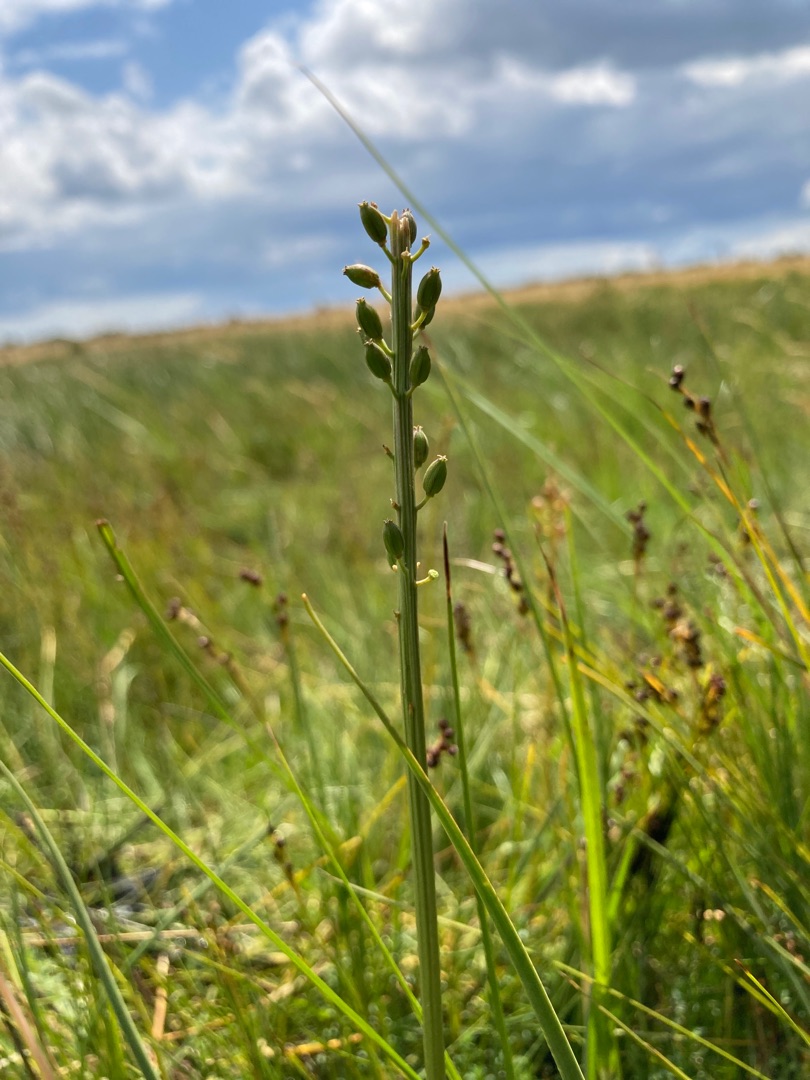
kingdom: Plantae
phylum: Tracheophyta
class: Liliopsida
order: Alismatales
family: Juncaginaceae
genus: Triglochin
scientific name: Triglochin maritima
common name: Strand-trehage
